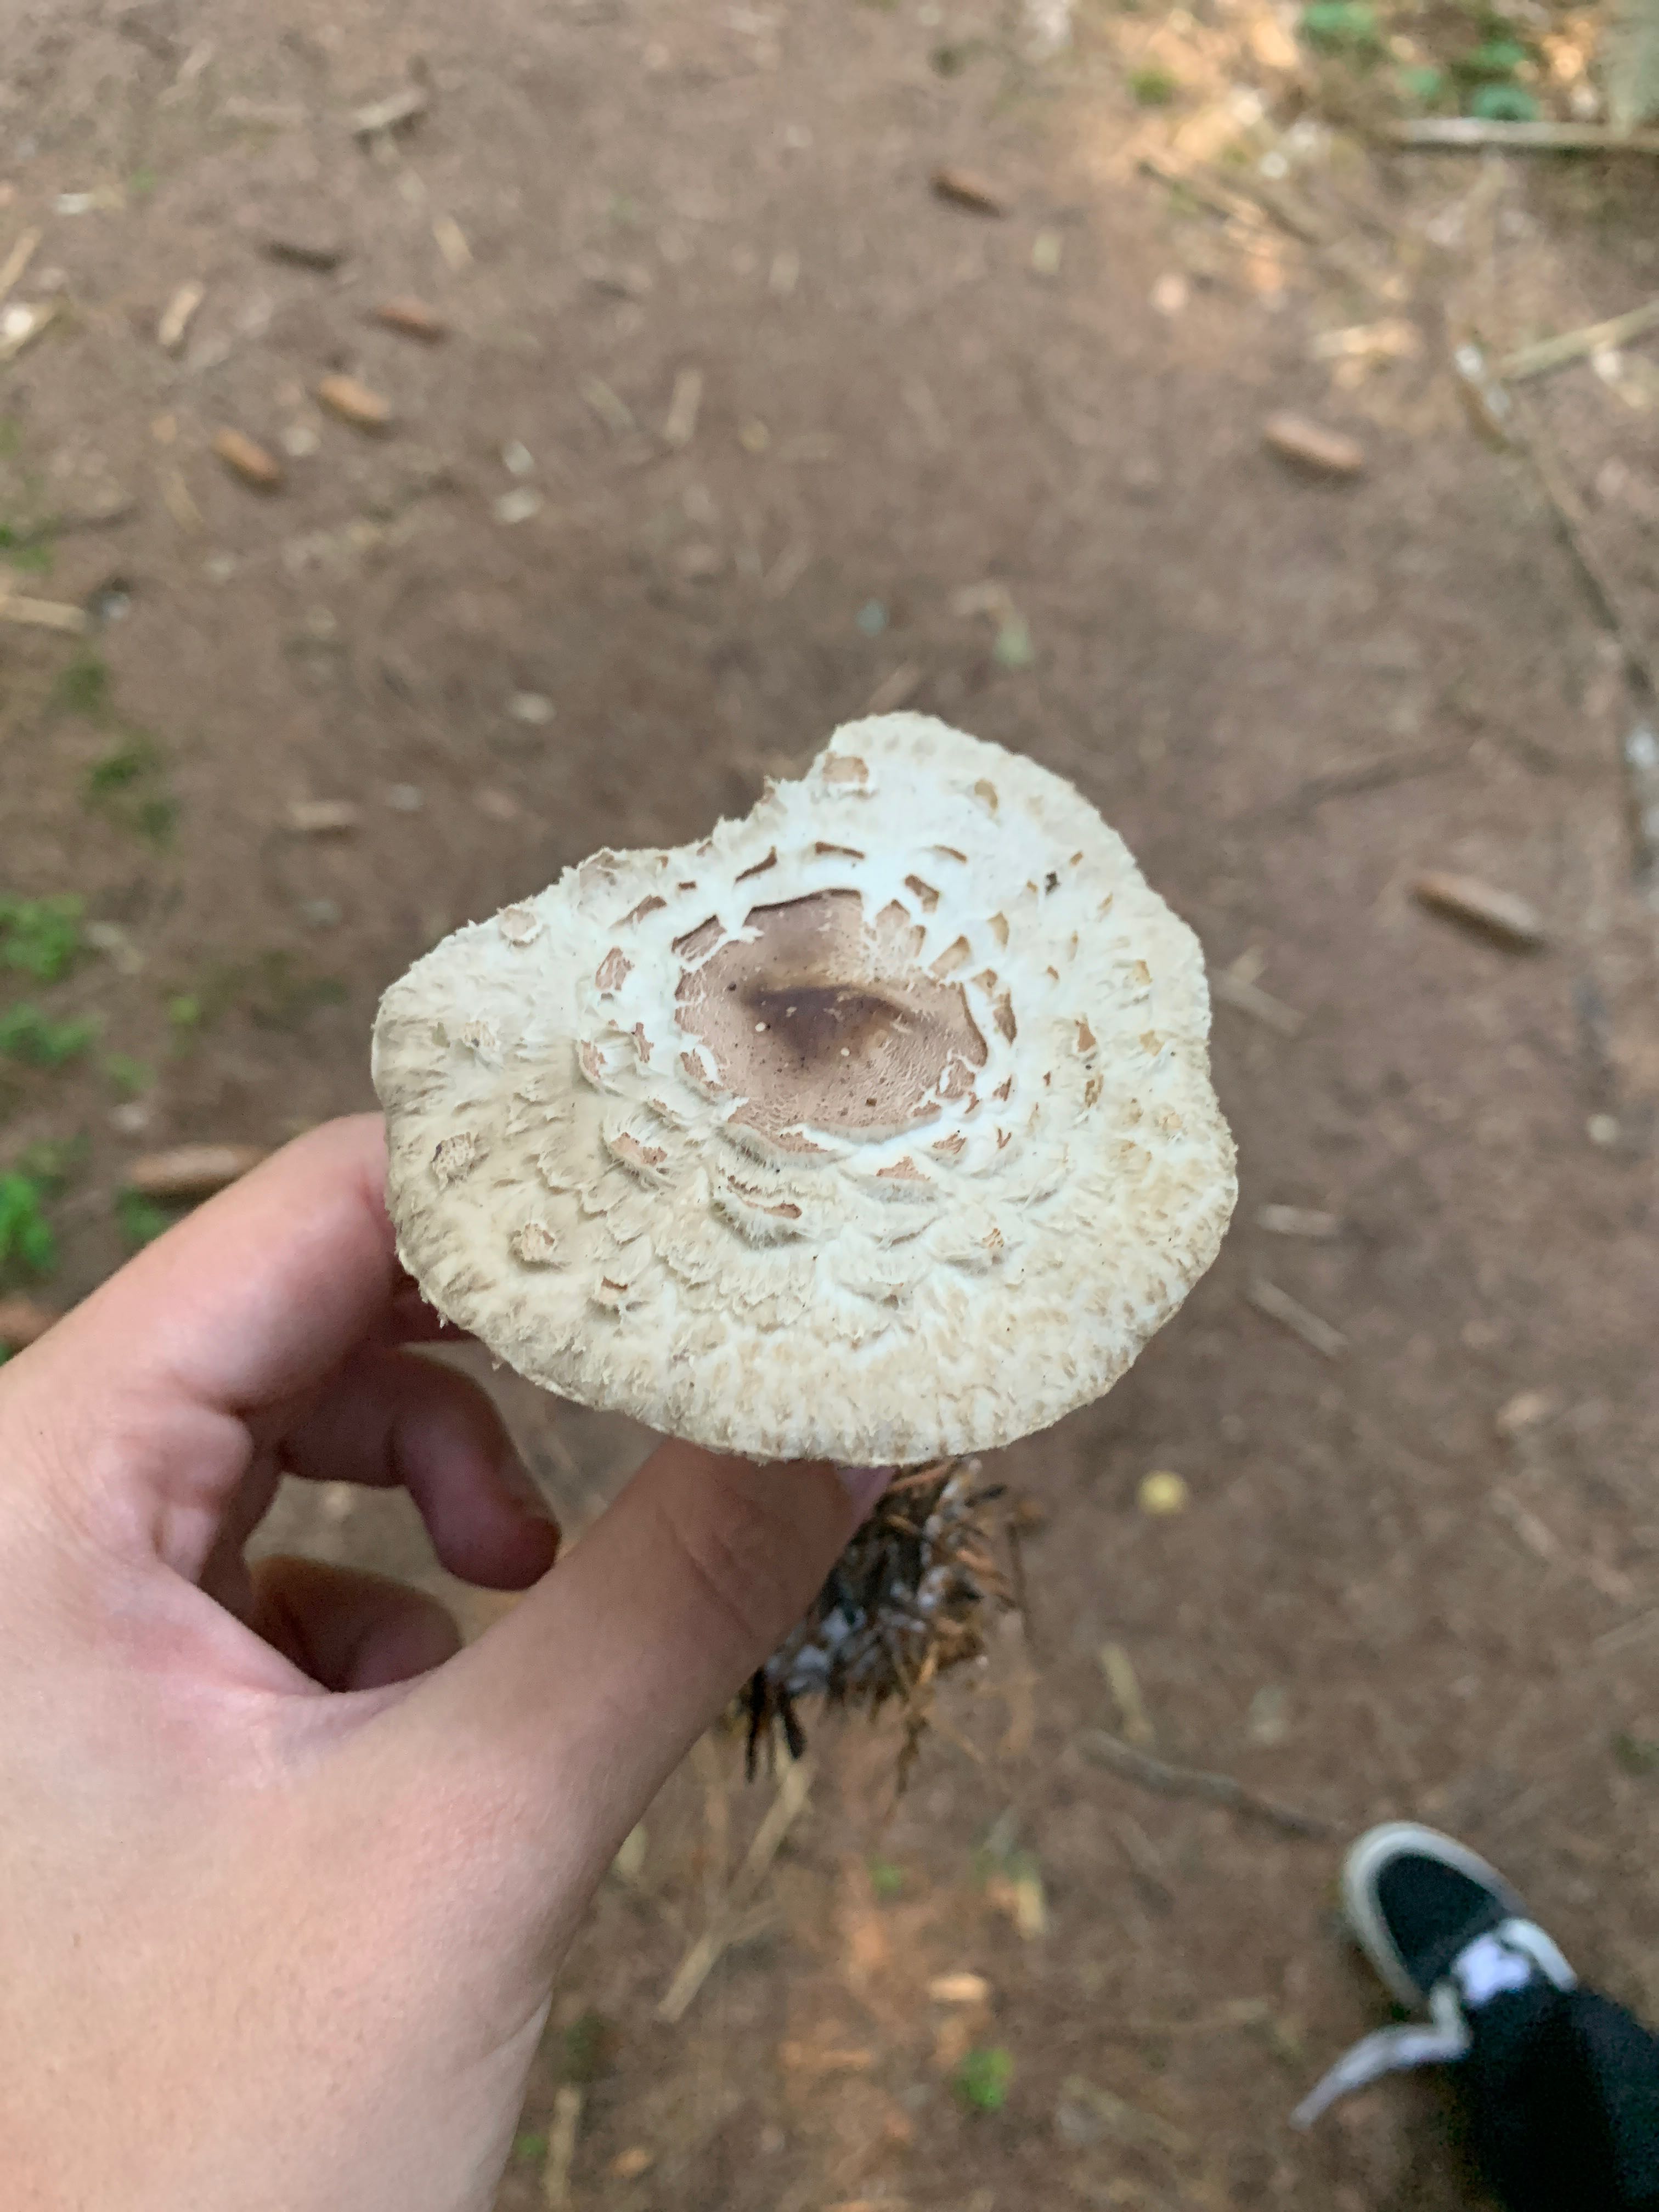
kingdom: Fungi
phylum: Basidiomycota
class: Agaricomycetes
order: Agaricales
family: Agaricaceae
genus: Chlorophyllum
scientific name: Chlorophyllum brunneum
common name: giftig rabarberhat
